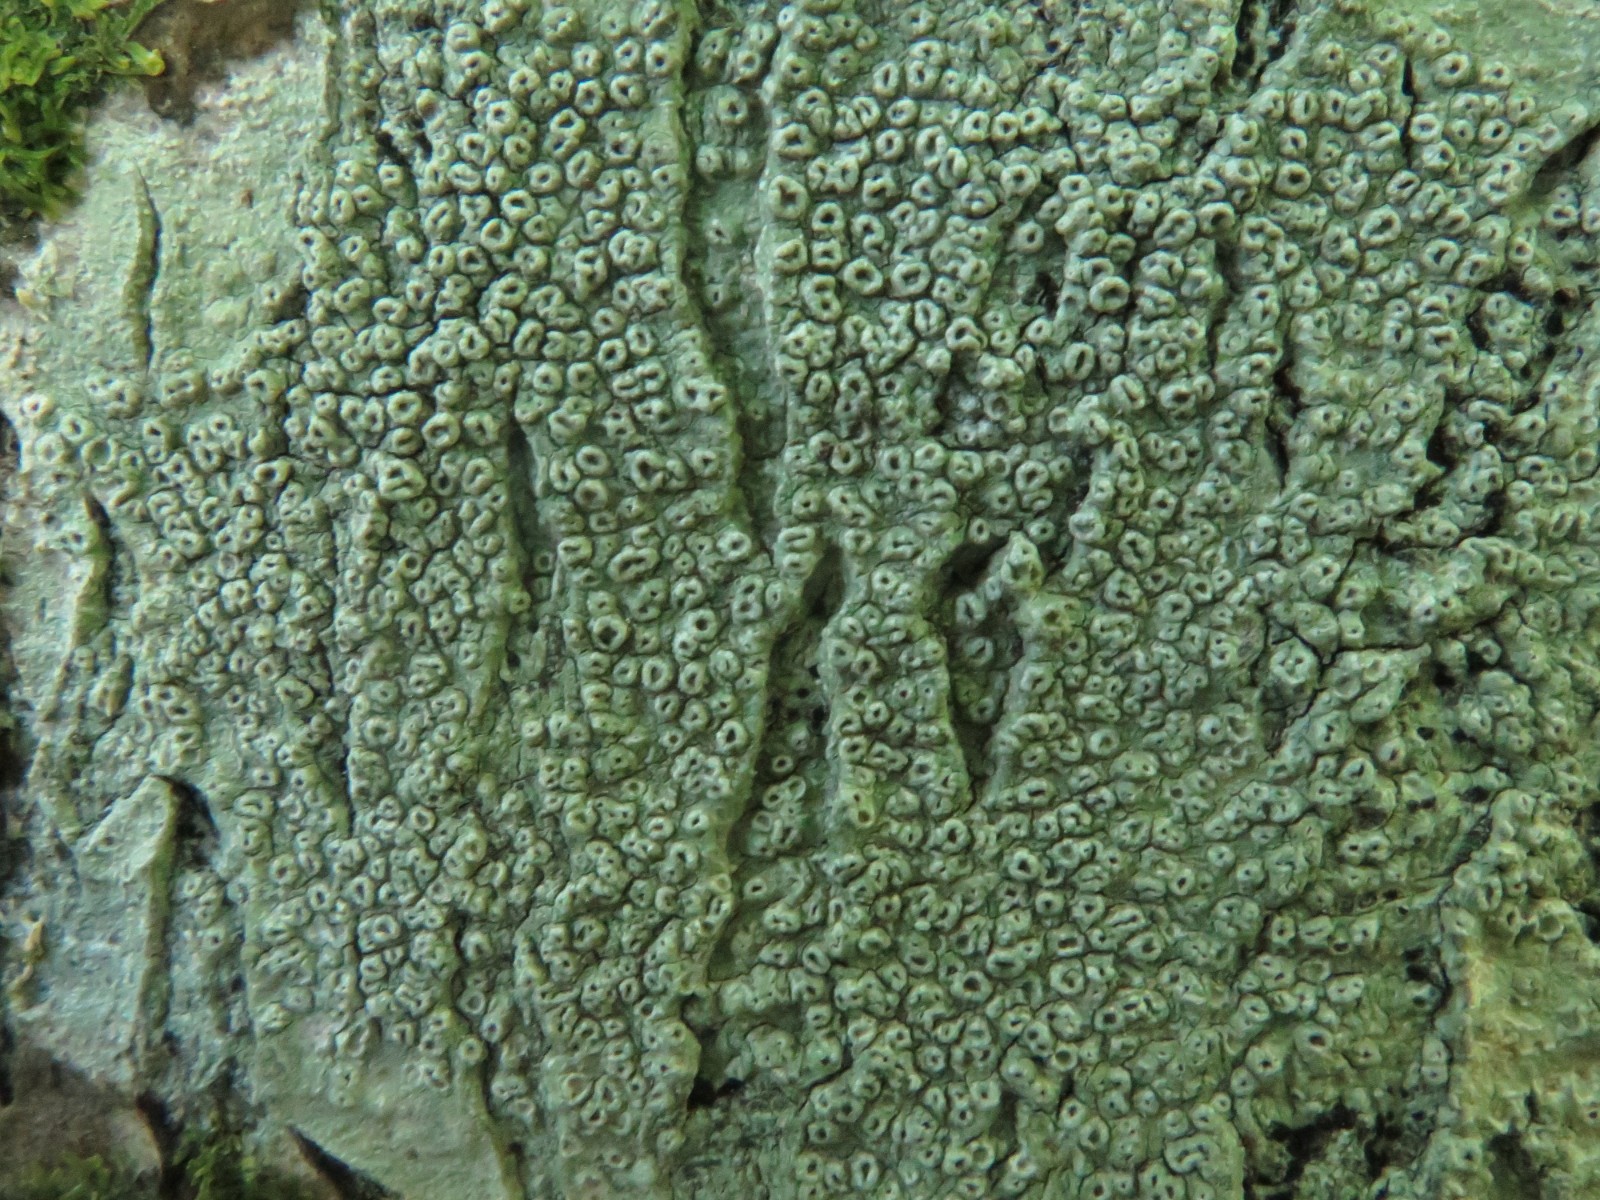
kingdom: Fungi
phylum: Ascomycota
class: Lecanoromycetes
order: Pertusariales
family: Pertusariaceae
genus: Pertusaria
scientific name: Pertusaria hymenea
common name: åben prikvortelav
